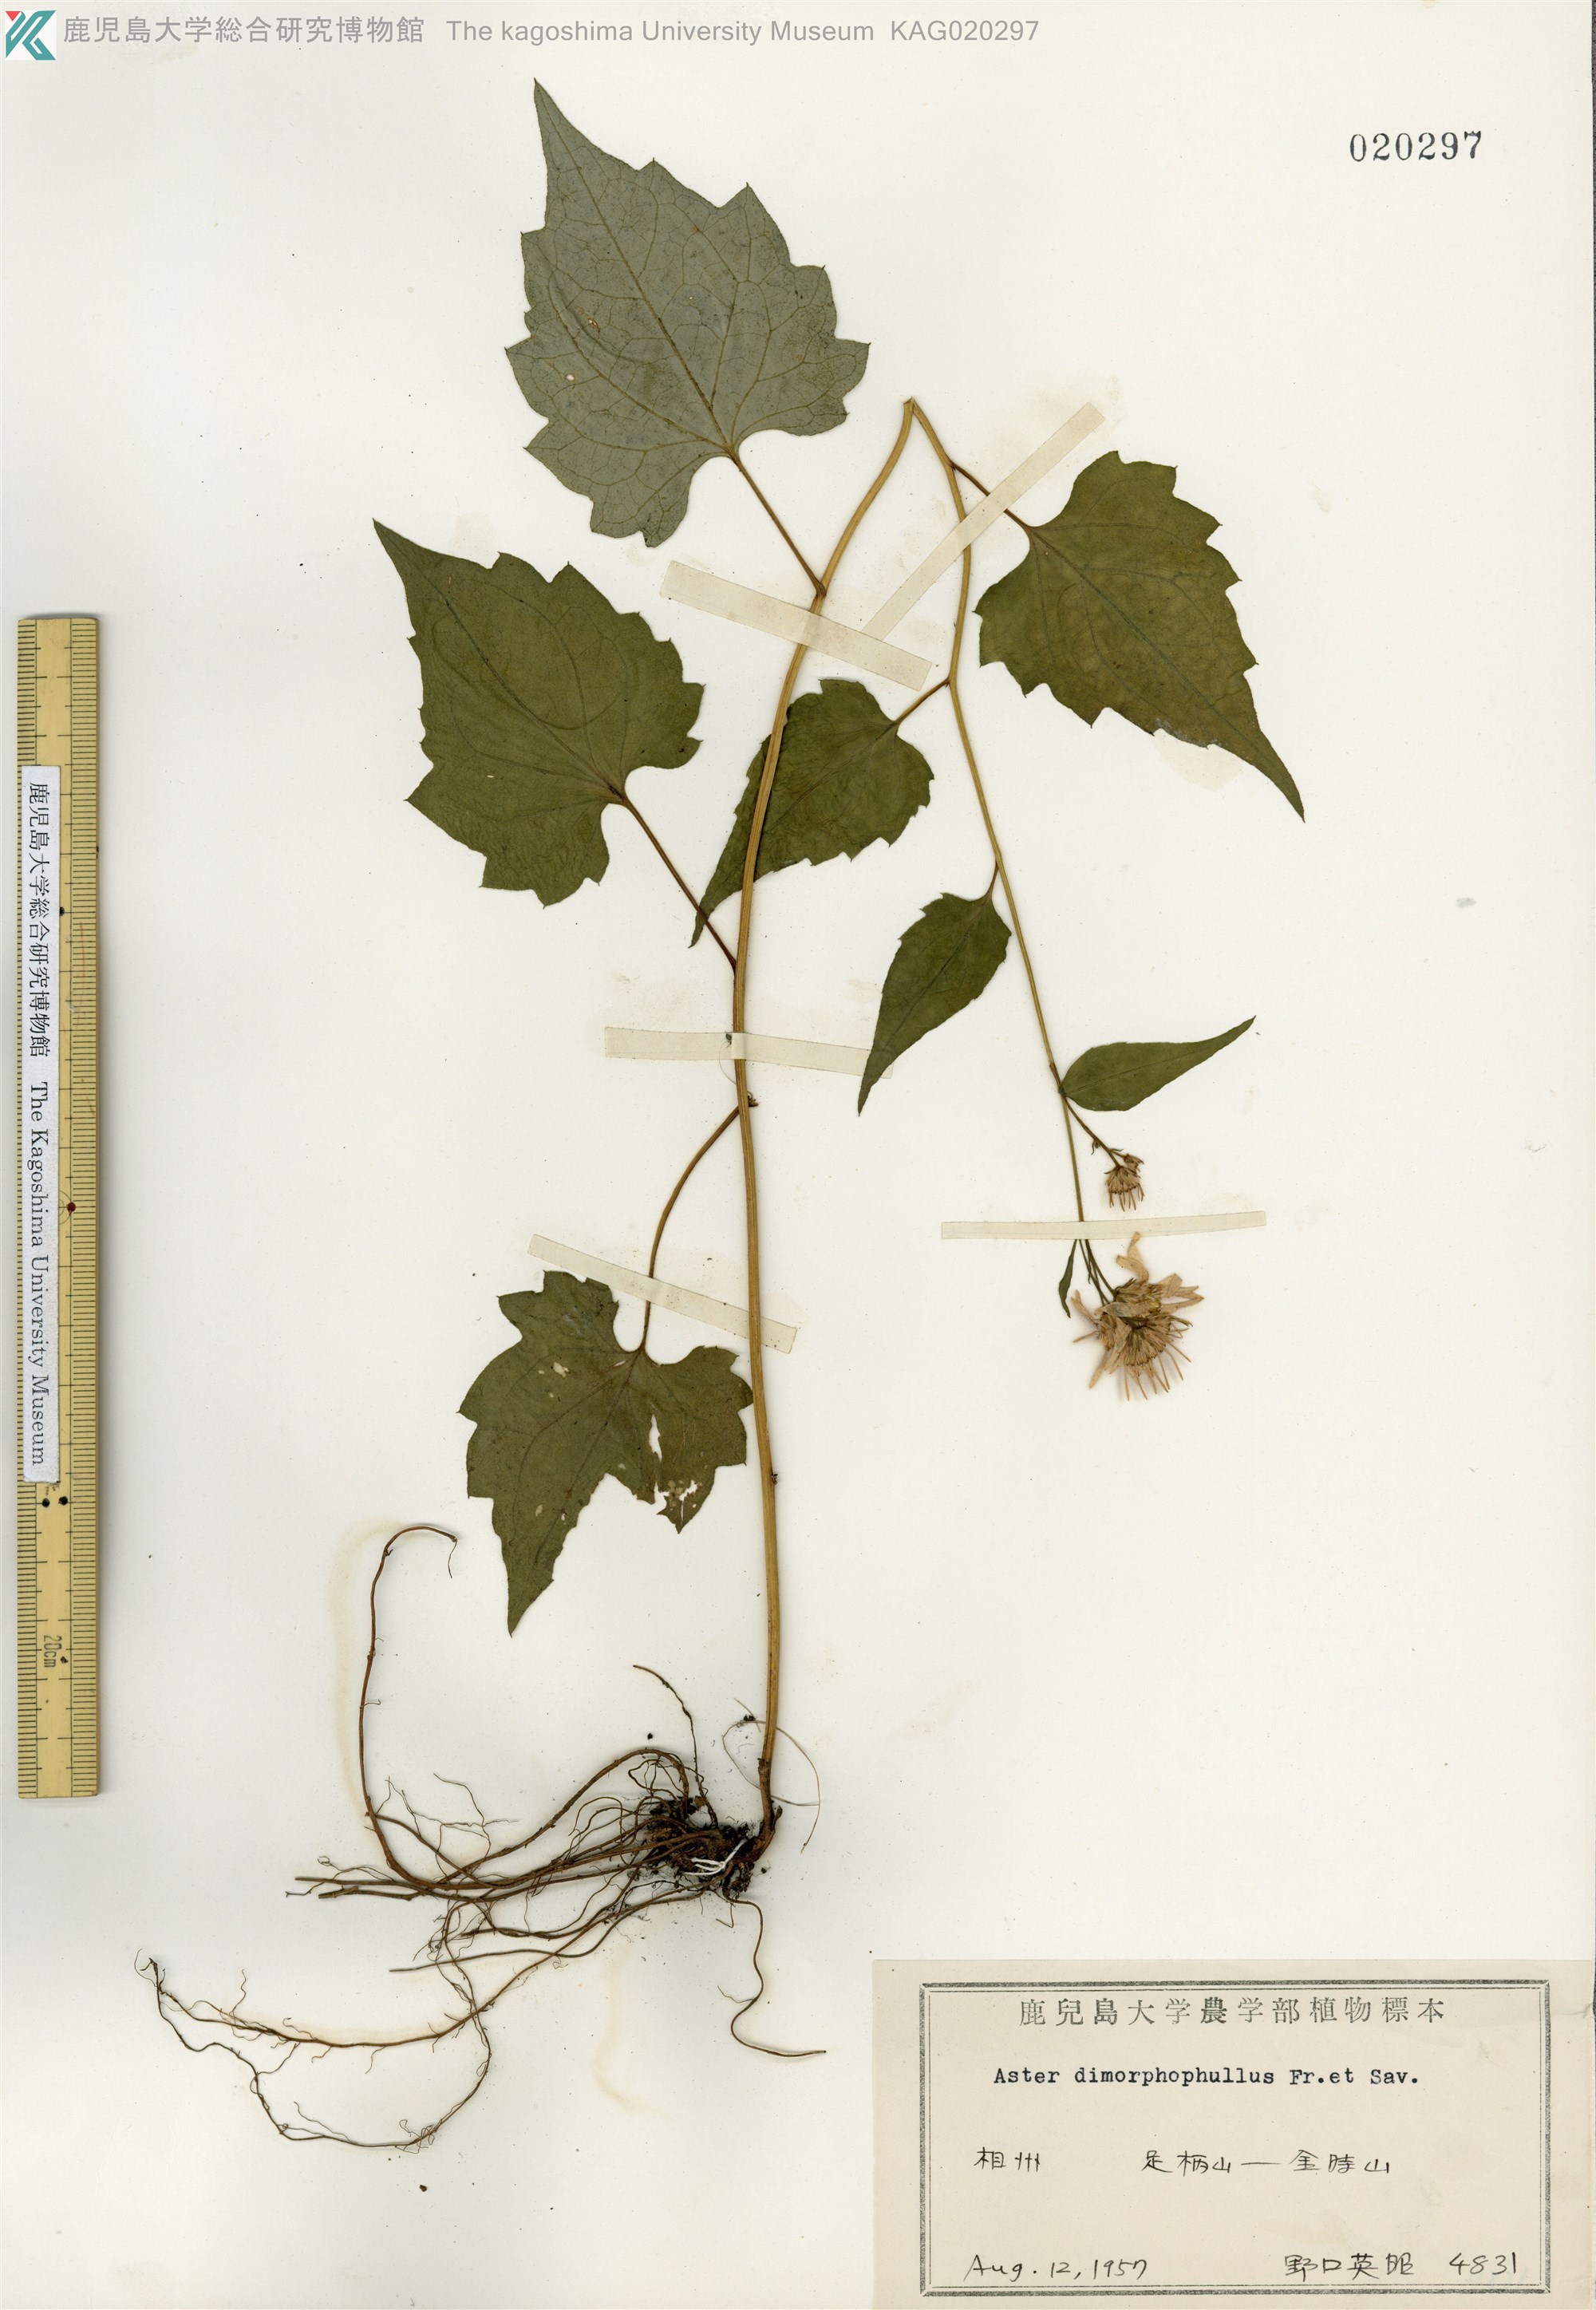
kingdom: Plantae
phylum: Tracheophyta
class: Magnoliopsida
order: Asterales
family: Asteraceae
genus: Cardiagyris
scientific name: Cardiagyris dimorphophylla
